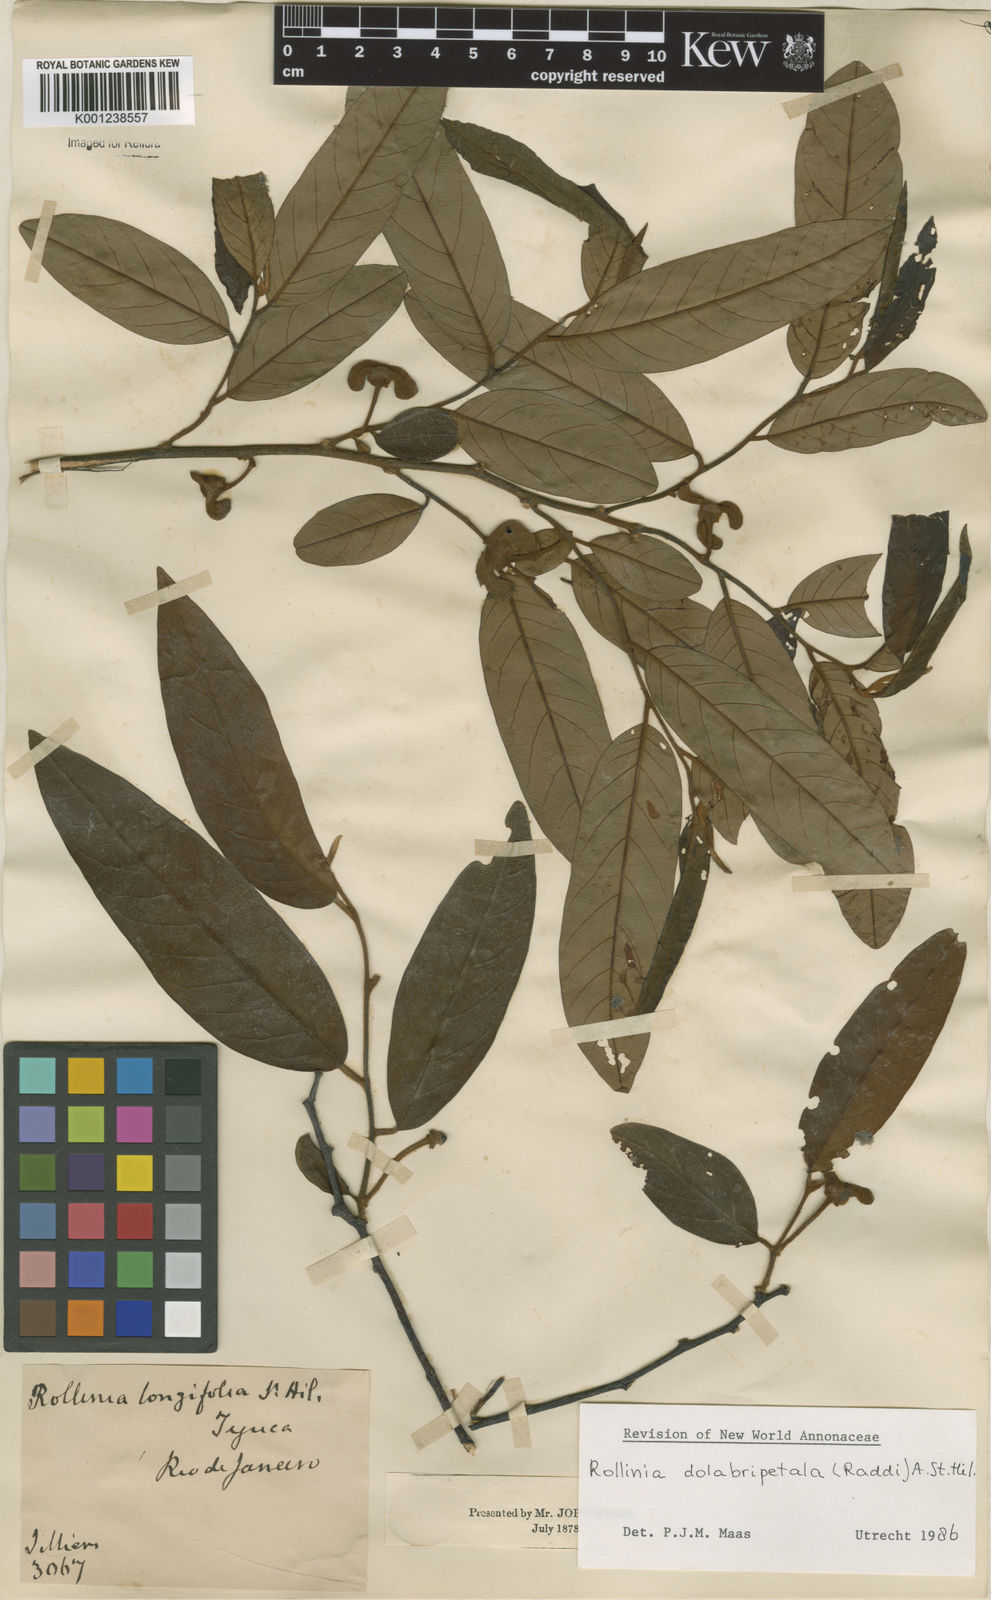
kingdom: Plantae
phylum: Tracheophyta
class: Magnoliopsida
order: Magnoliales
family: Annonaceae
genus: Annona
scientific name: Annona
